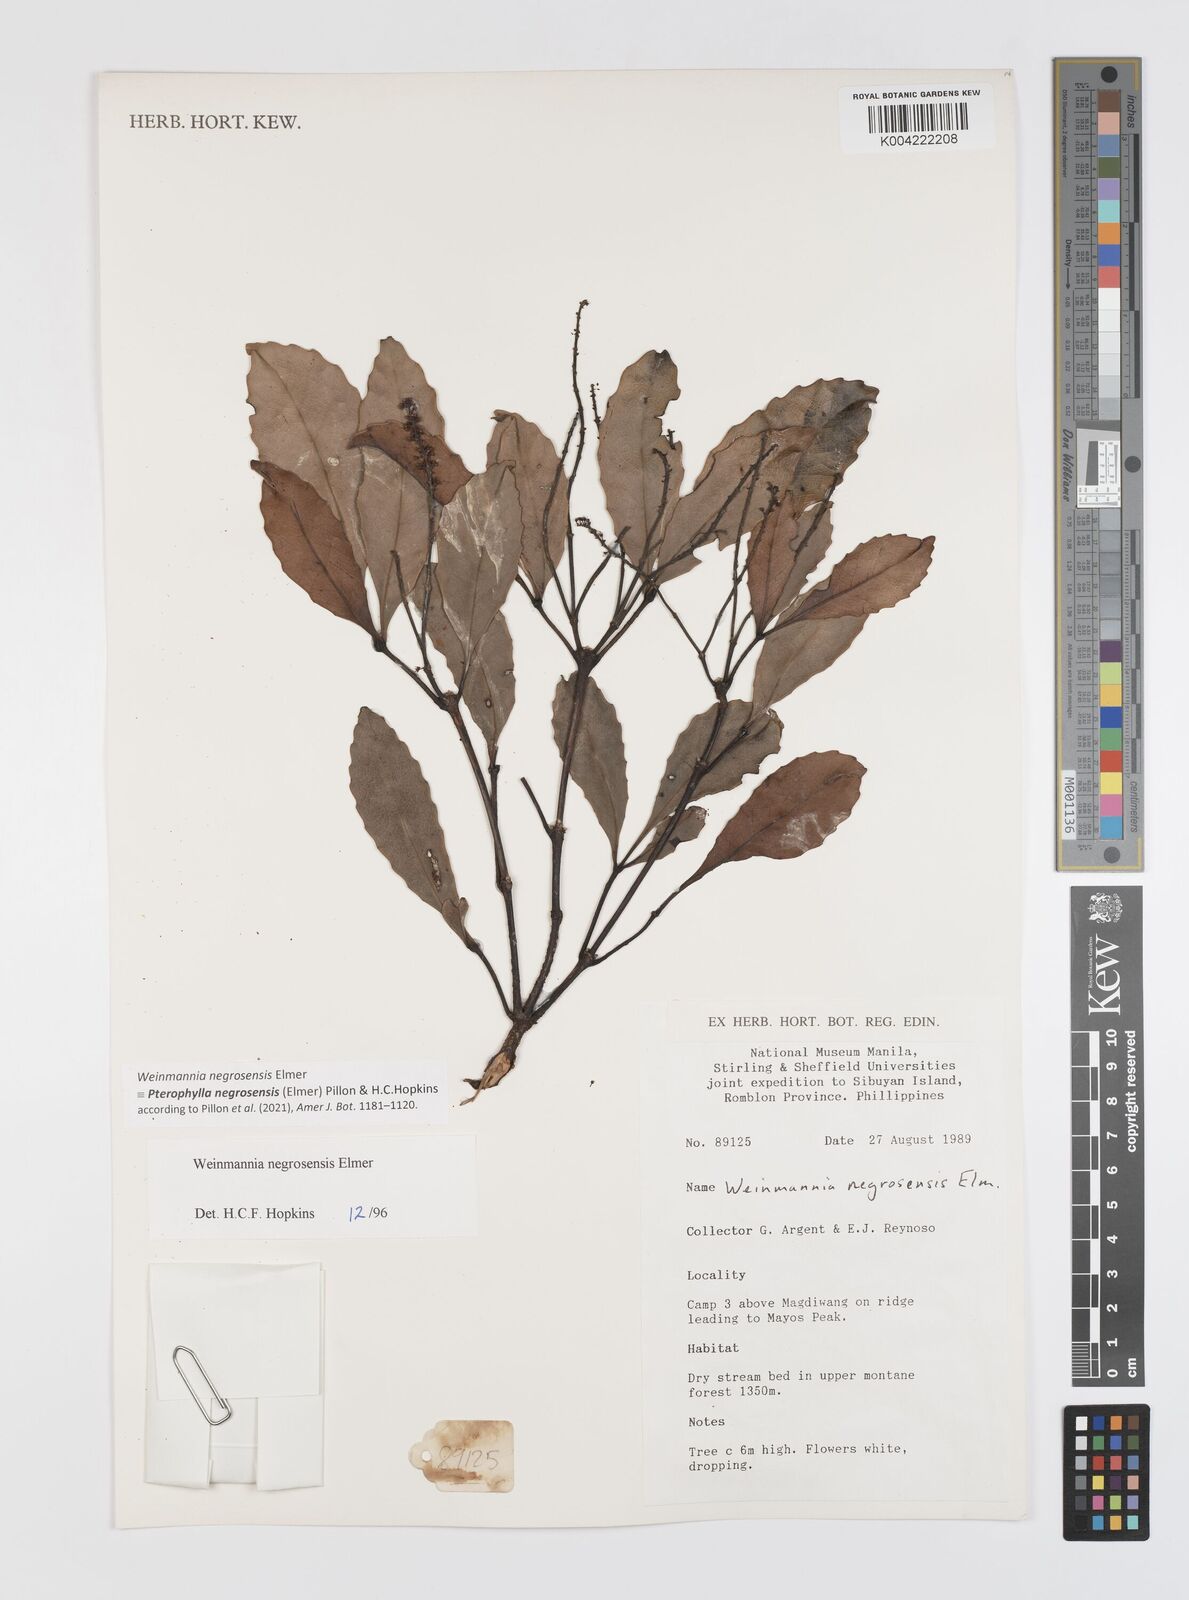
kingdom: Plantae
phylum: Tracheophyta
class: Magnoliopsida
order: Oxalidales
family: Cunoniaceae
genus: Pterophylla
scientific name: Pterophylla negrosensis
